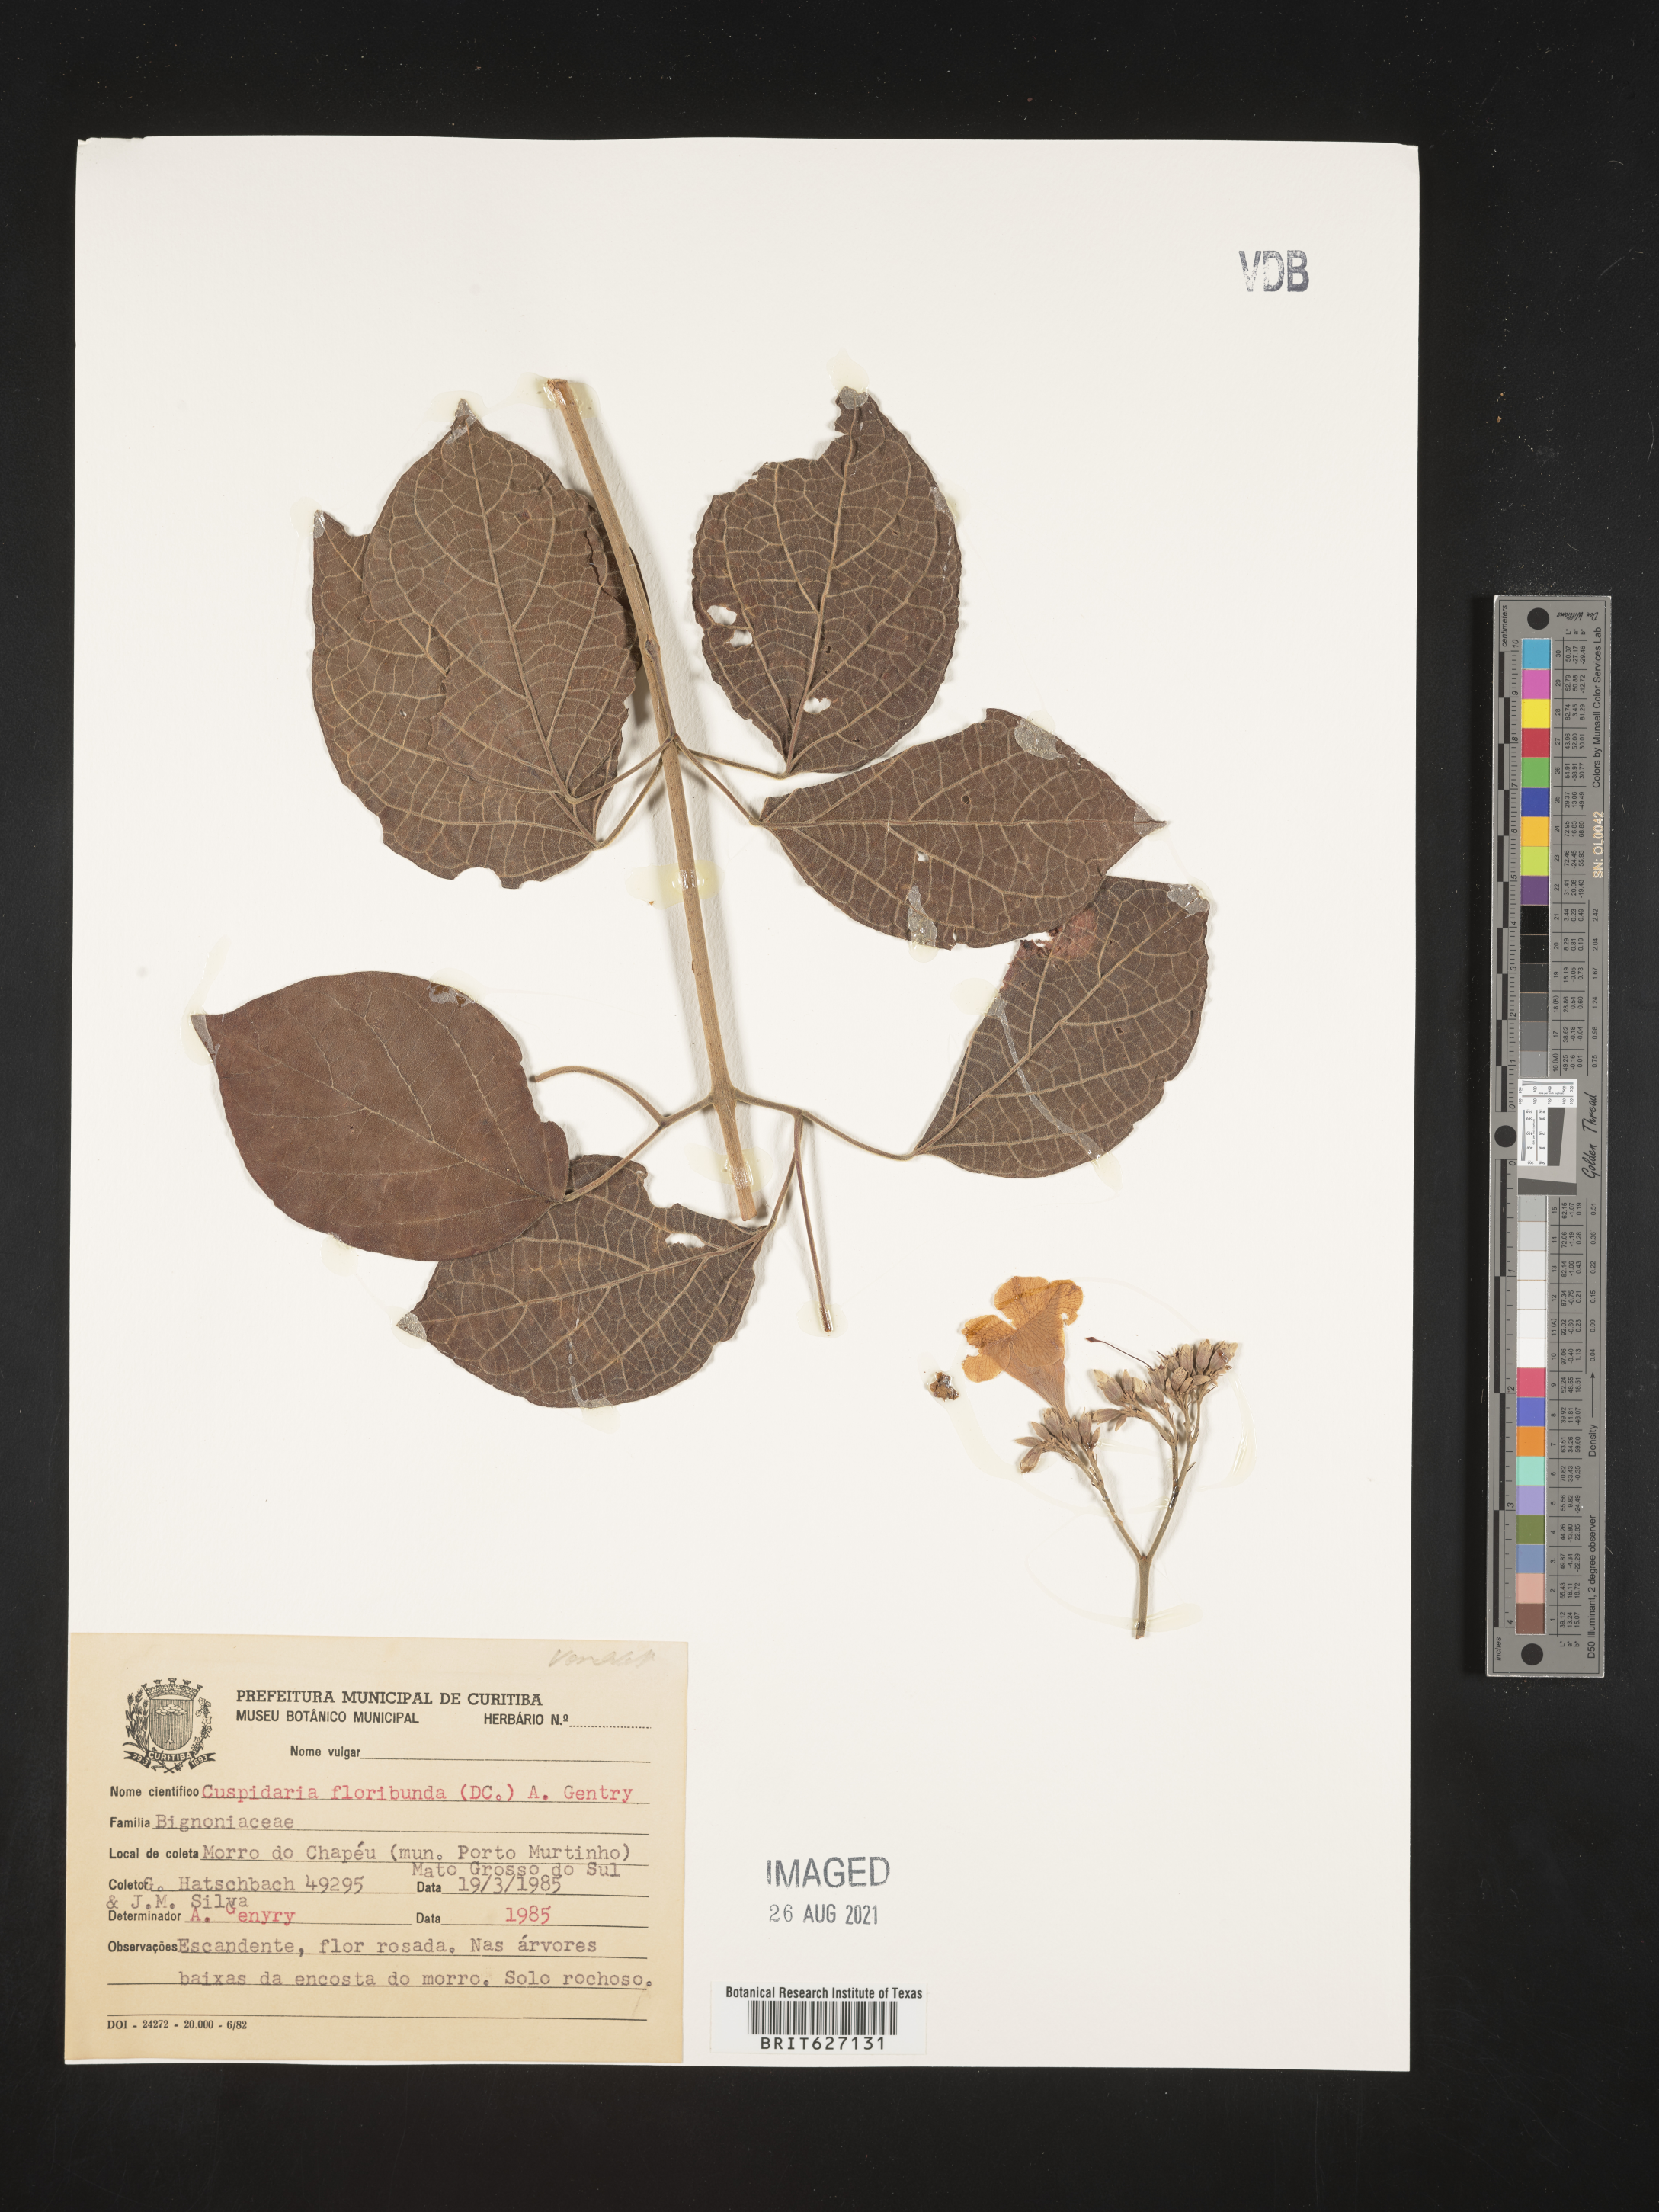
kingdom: Plantae
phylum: Tracheophyta
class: Magnoliopsida
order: Lamiales
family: Bignoniaceae
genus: Cuspidaria
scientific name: Cuspidaria floribunda
